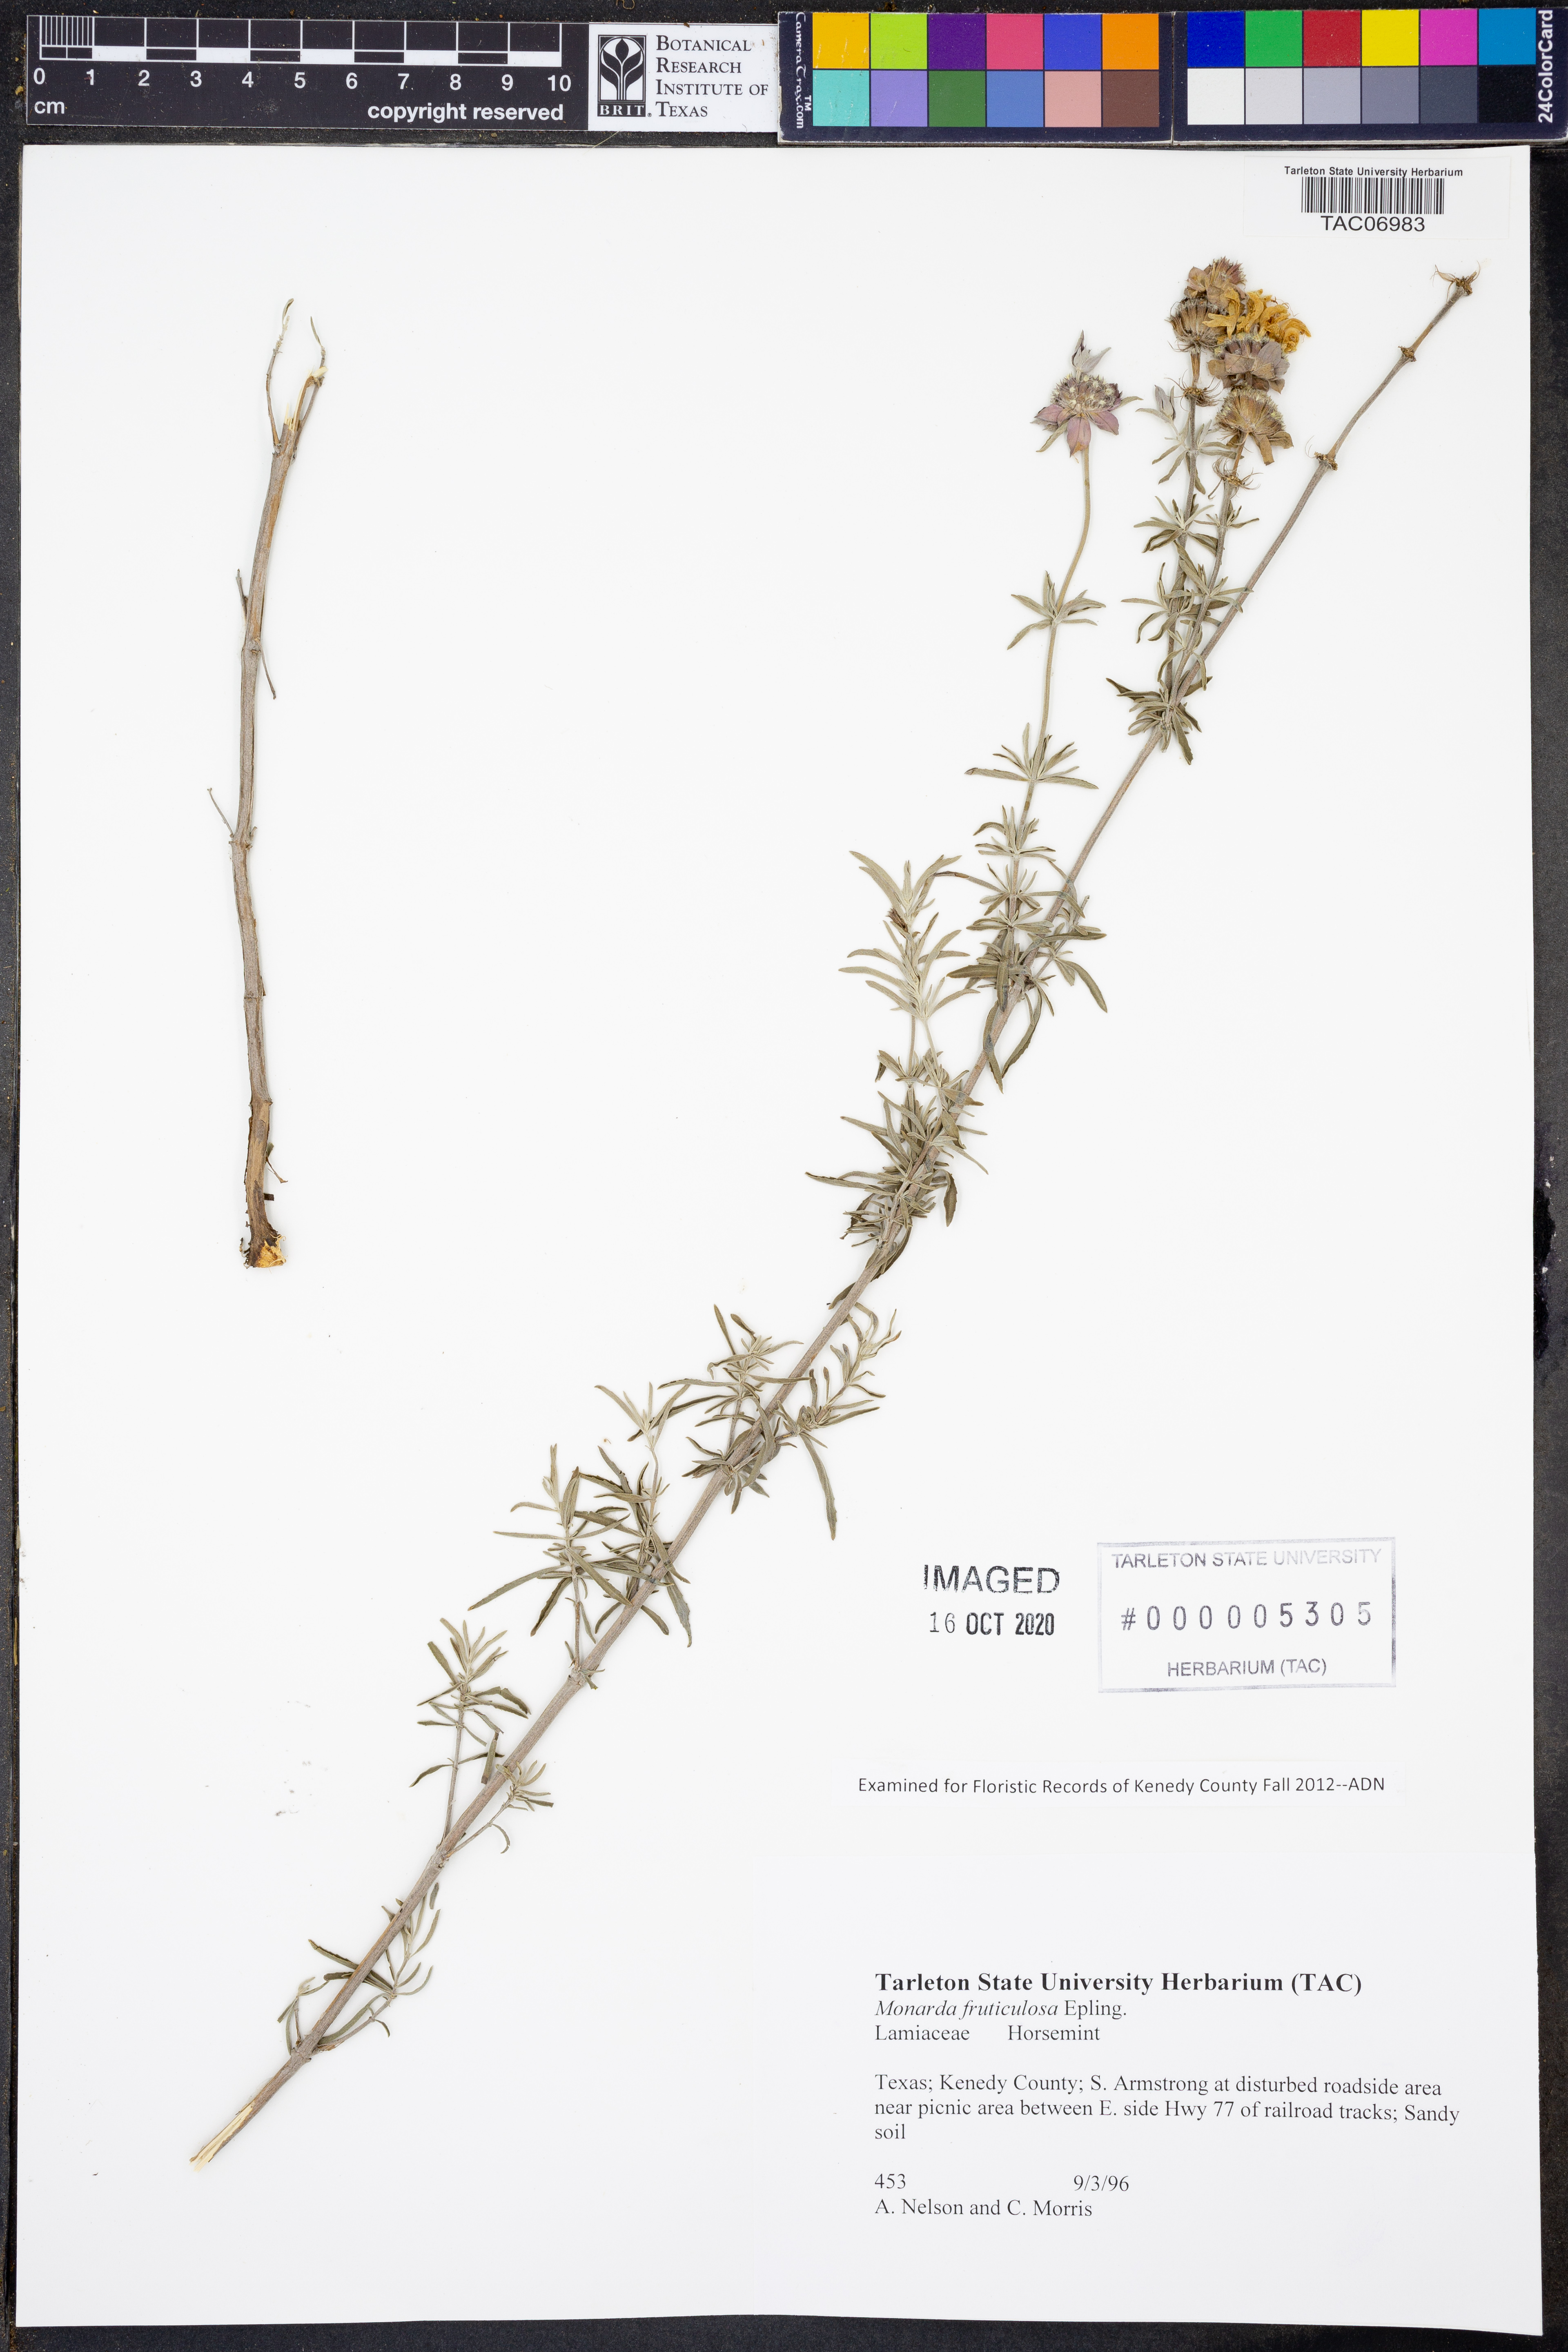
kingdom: Plantae
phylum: Tracheophyta
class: Magnoliopsida
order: Lamiales
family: Lamiaceae
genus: Monarda
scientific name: Monarda fruticulosa
